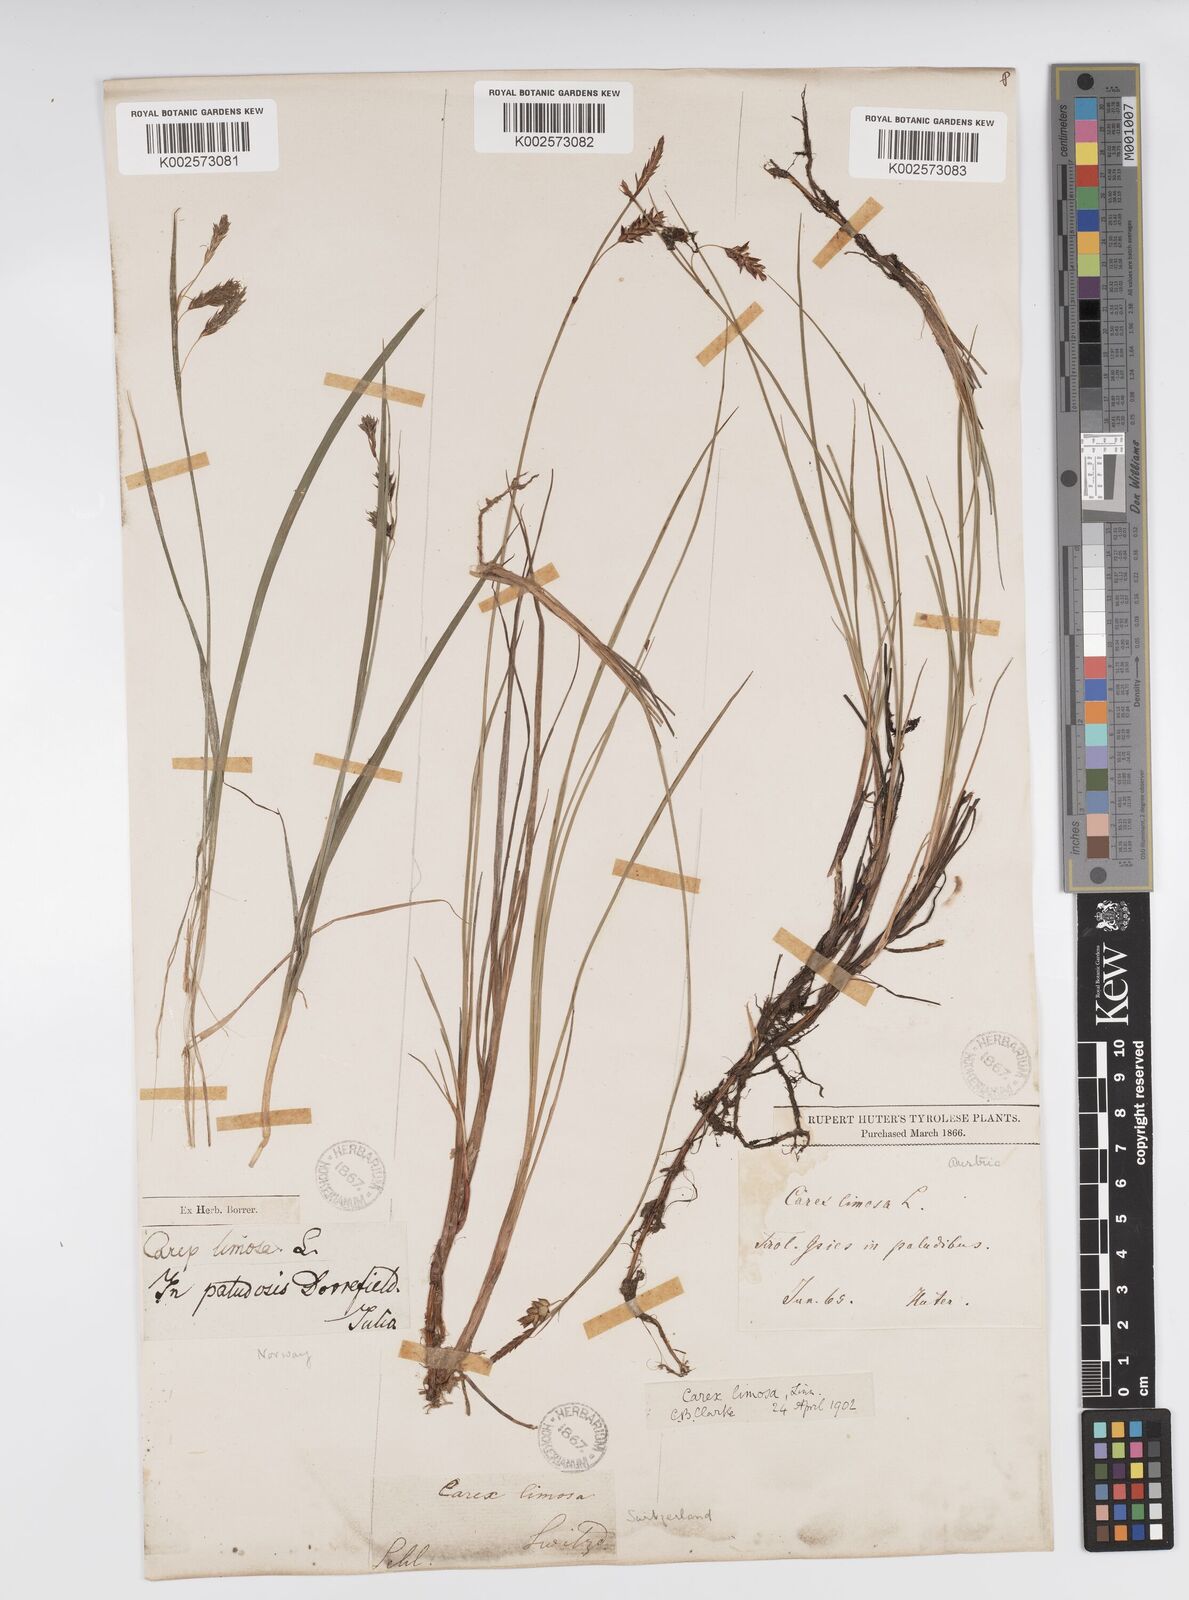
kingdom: Plantae
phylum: Tracheophyta
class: Liliopsida
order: Poales
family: Cyperaceae
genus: Carex
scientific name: Carex limosa
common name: Bog sedge
